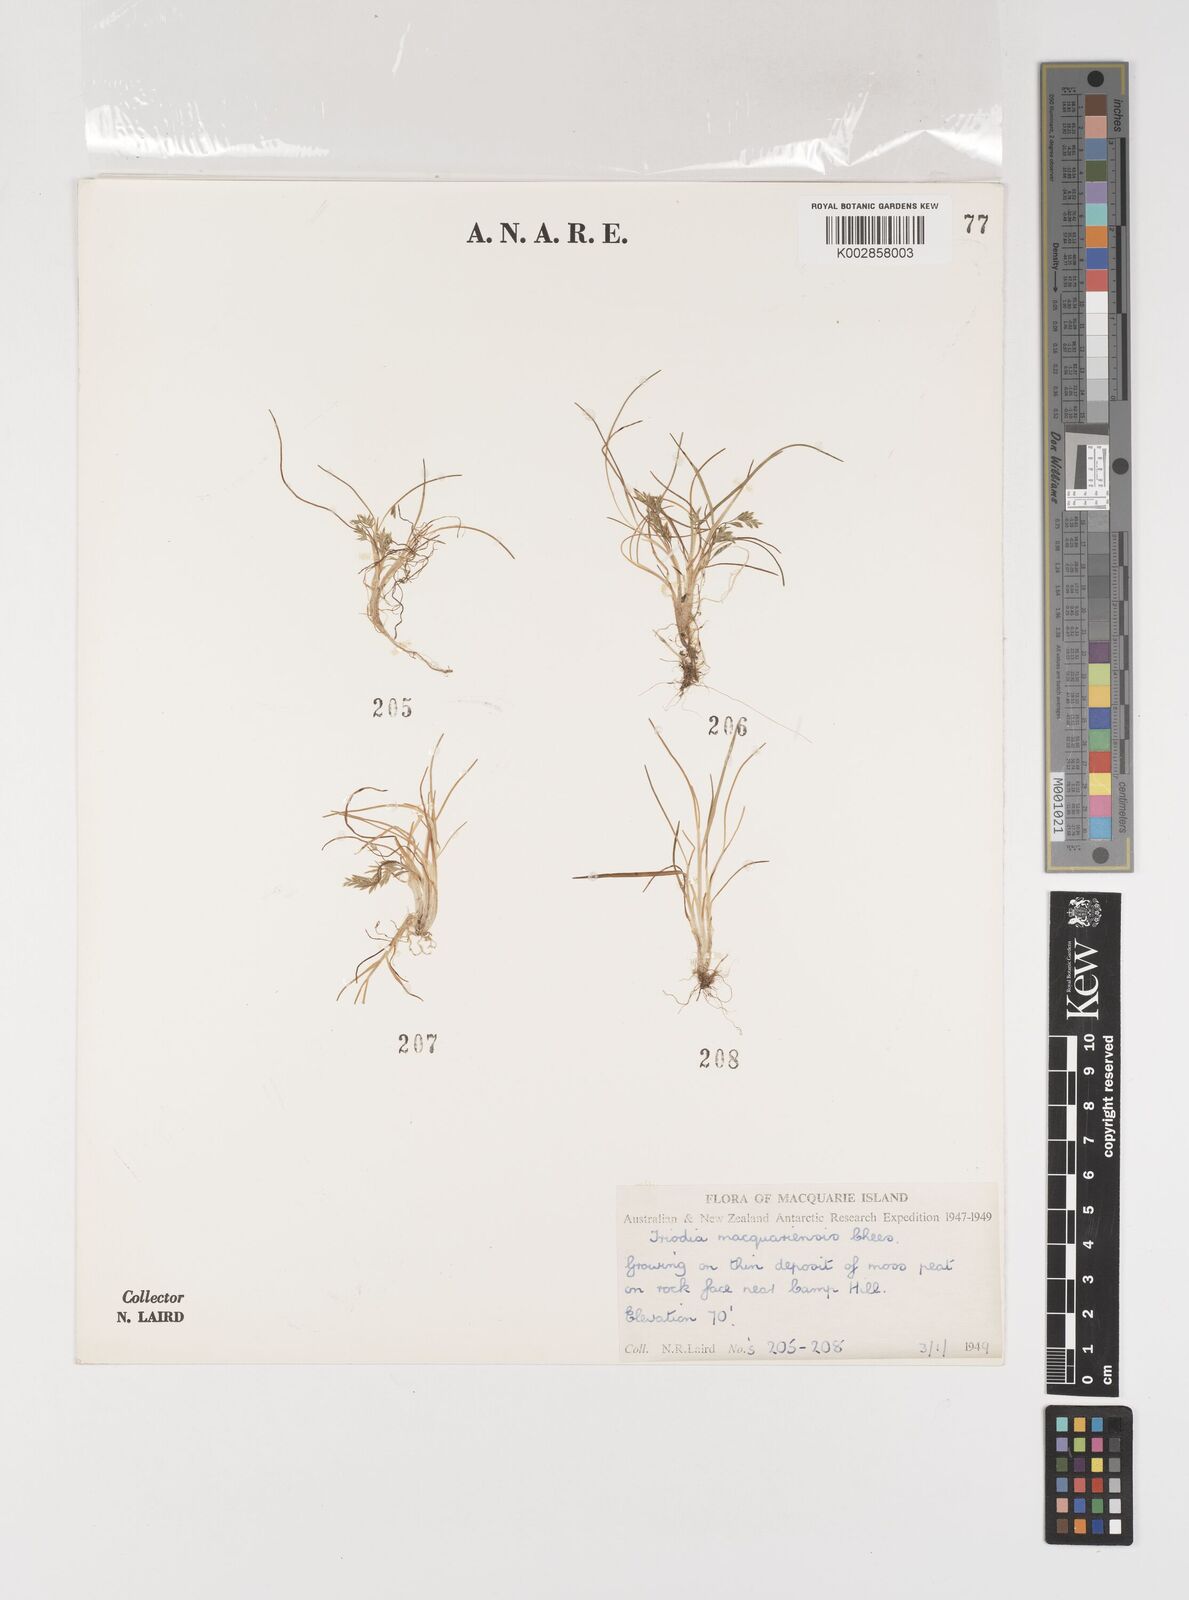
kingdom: Plantae
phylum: Tracheophyta
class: Liliopsida
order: Poales
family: Poaceae
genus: Puccinellia
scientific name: Puccinellia macquariensis
